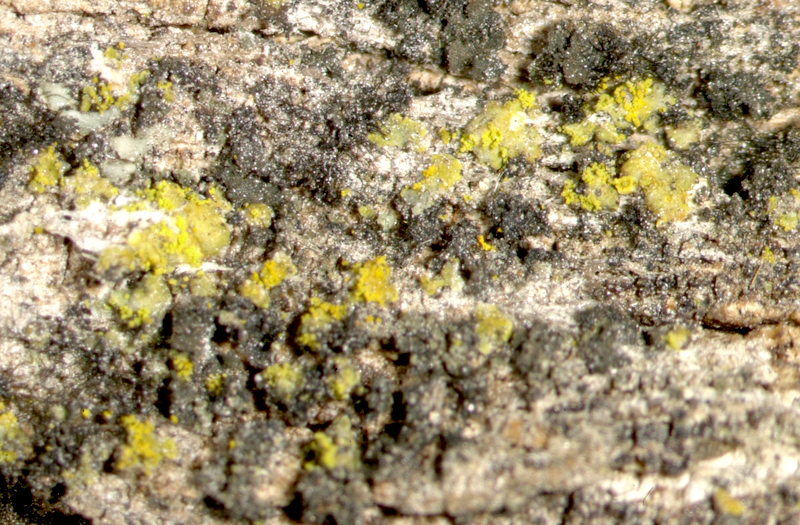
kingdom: Fungi
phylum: Ascomycota
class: Candelariomycetes
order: Candelariales
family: Candelariaceae
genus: Candelaria
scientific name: Candelaria concolor
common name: Candleflame lichen
